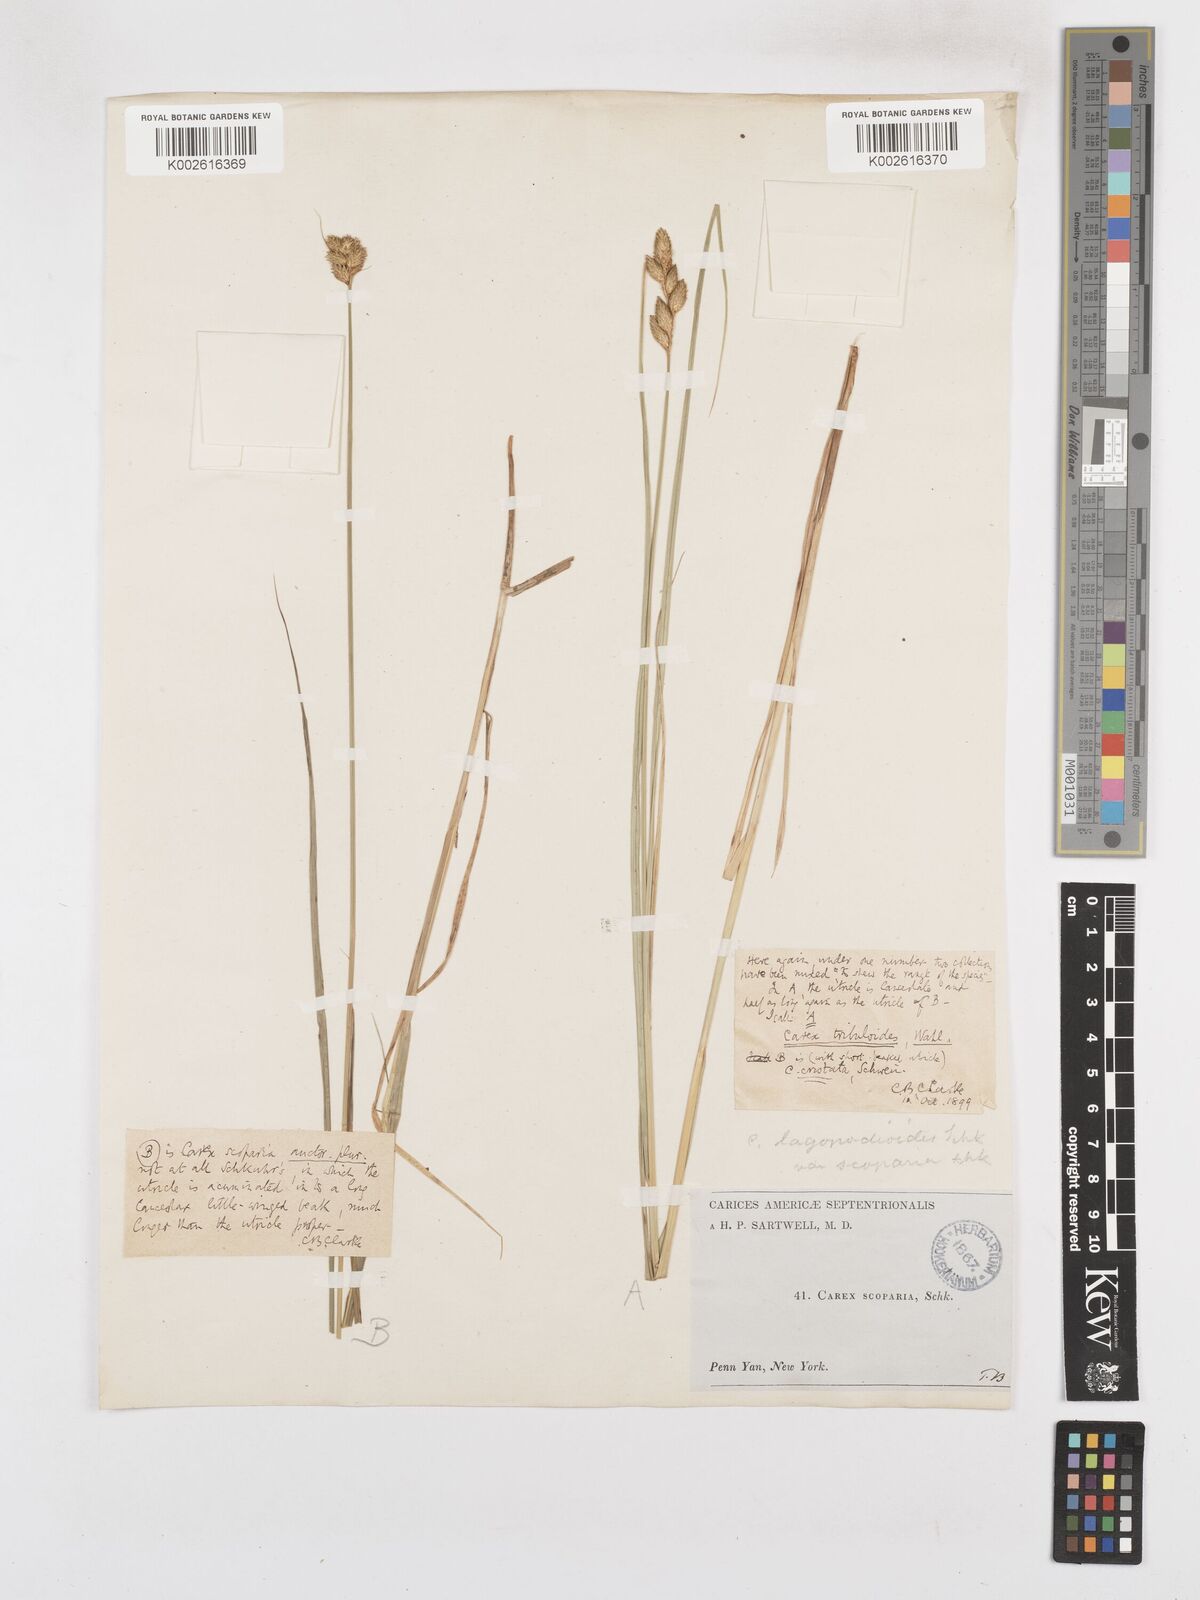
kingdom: Plantae
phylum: Tracheophyta
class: Liliopsida
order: Poales
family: Cyperaceae
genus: Carex
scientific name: Carex tribuloides
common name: Blunt broom sedge
